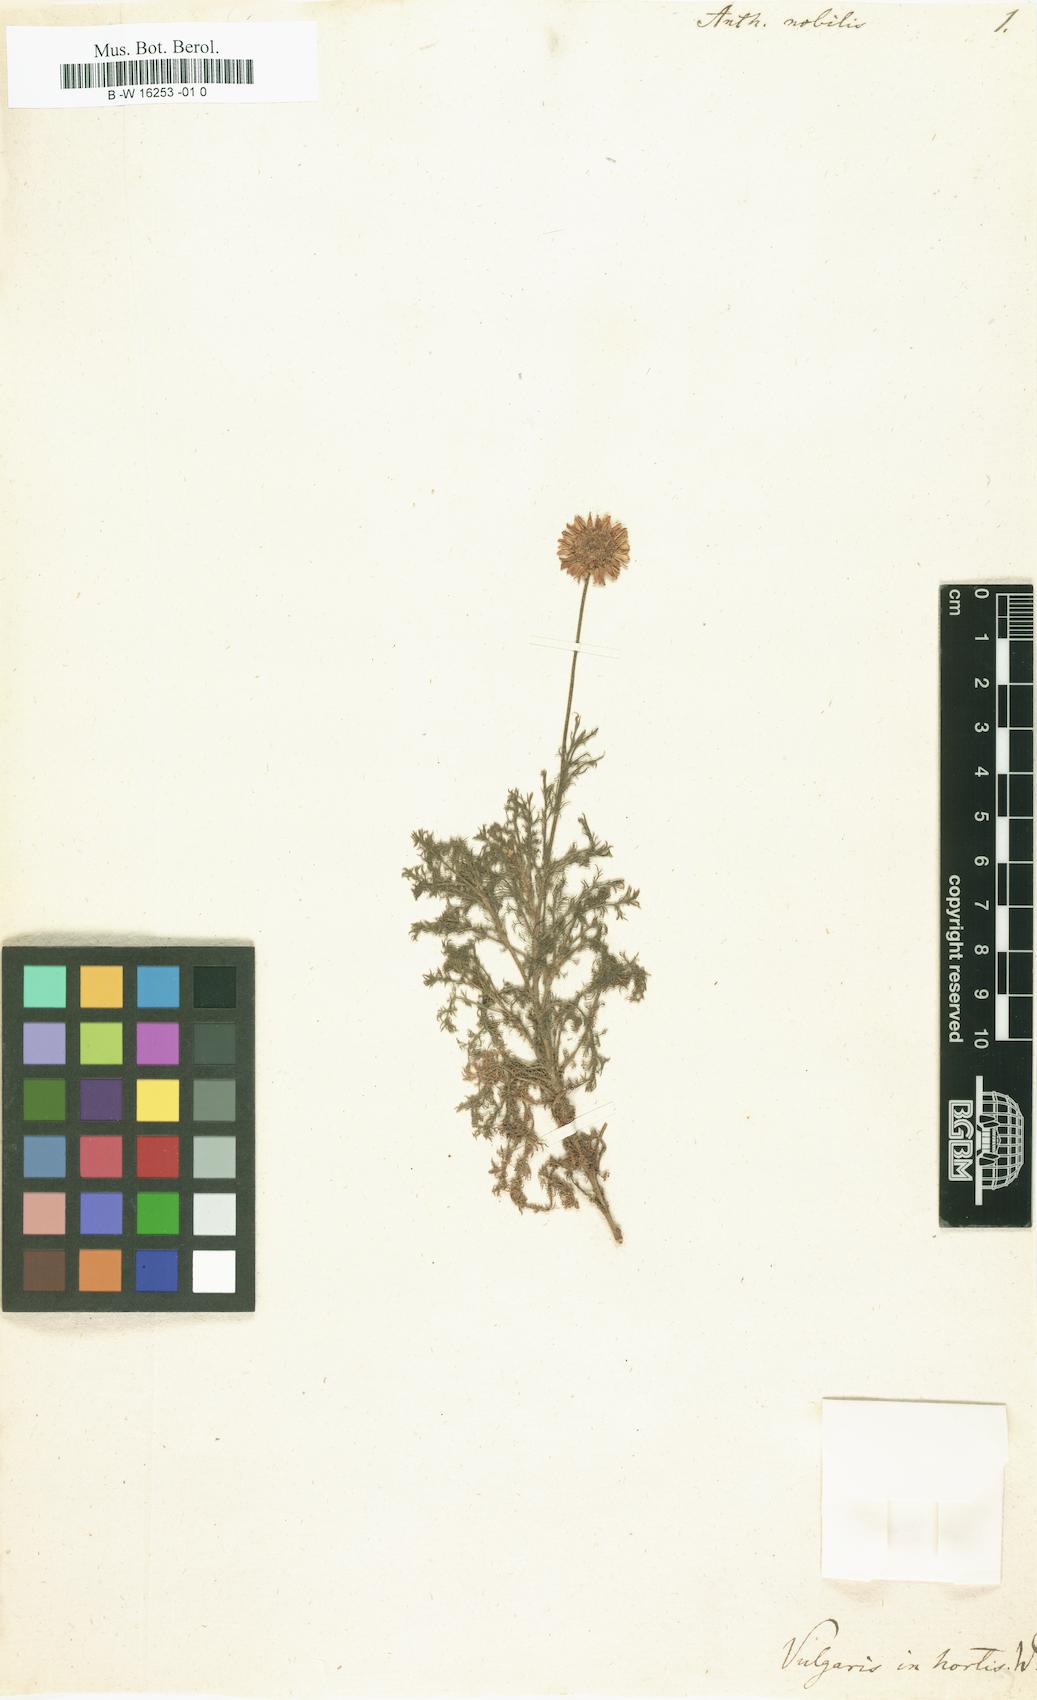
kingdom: Plantae
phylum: Tracheophyta
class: Magnoliopsida
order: Asterales
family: Asteraceae
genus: Chamaemelum
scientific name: Chamaemelum nobile
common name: Roman chamomile
